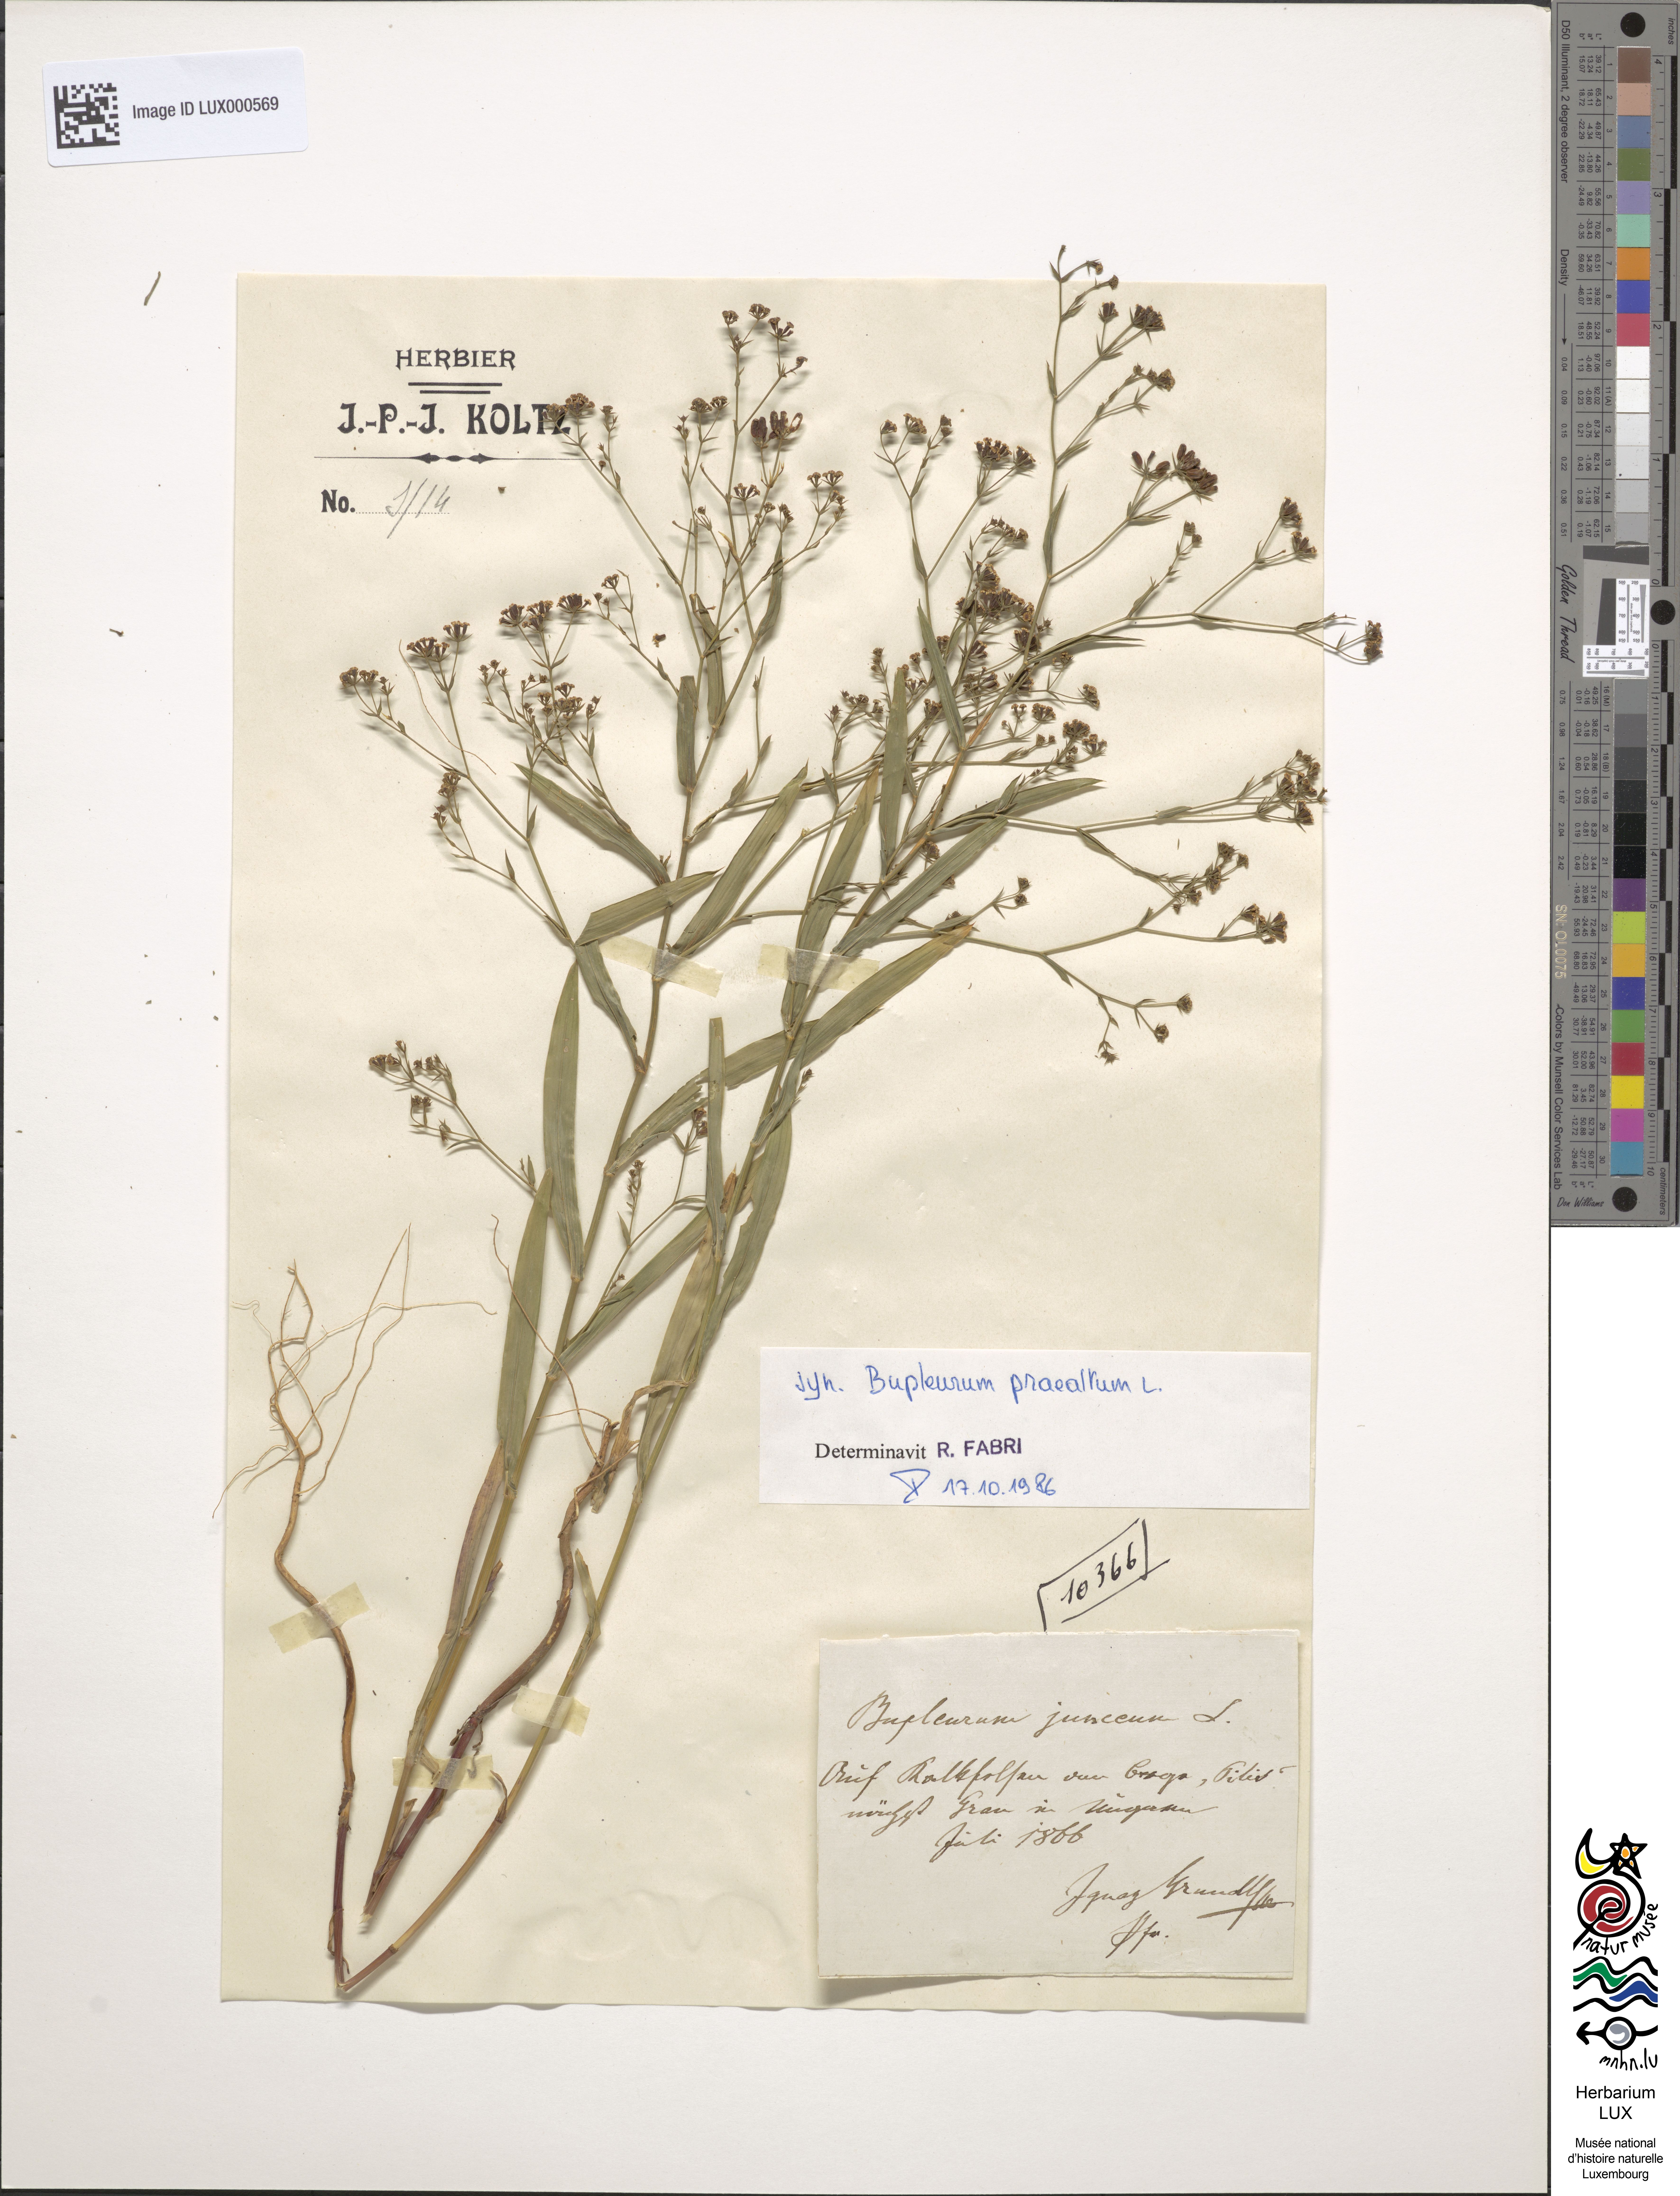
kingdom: Plantae
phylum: Tracheophyta
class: Magnoliopsida
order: Apiales
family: Apiaceae
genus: Bupleurum
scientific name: Bupleurum praealtum
